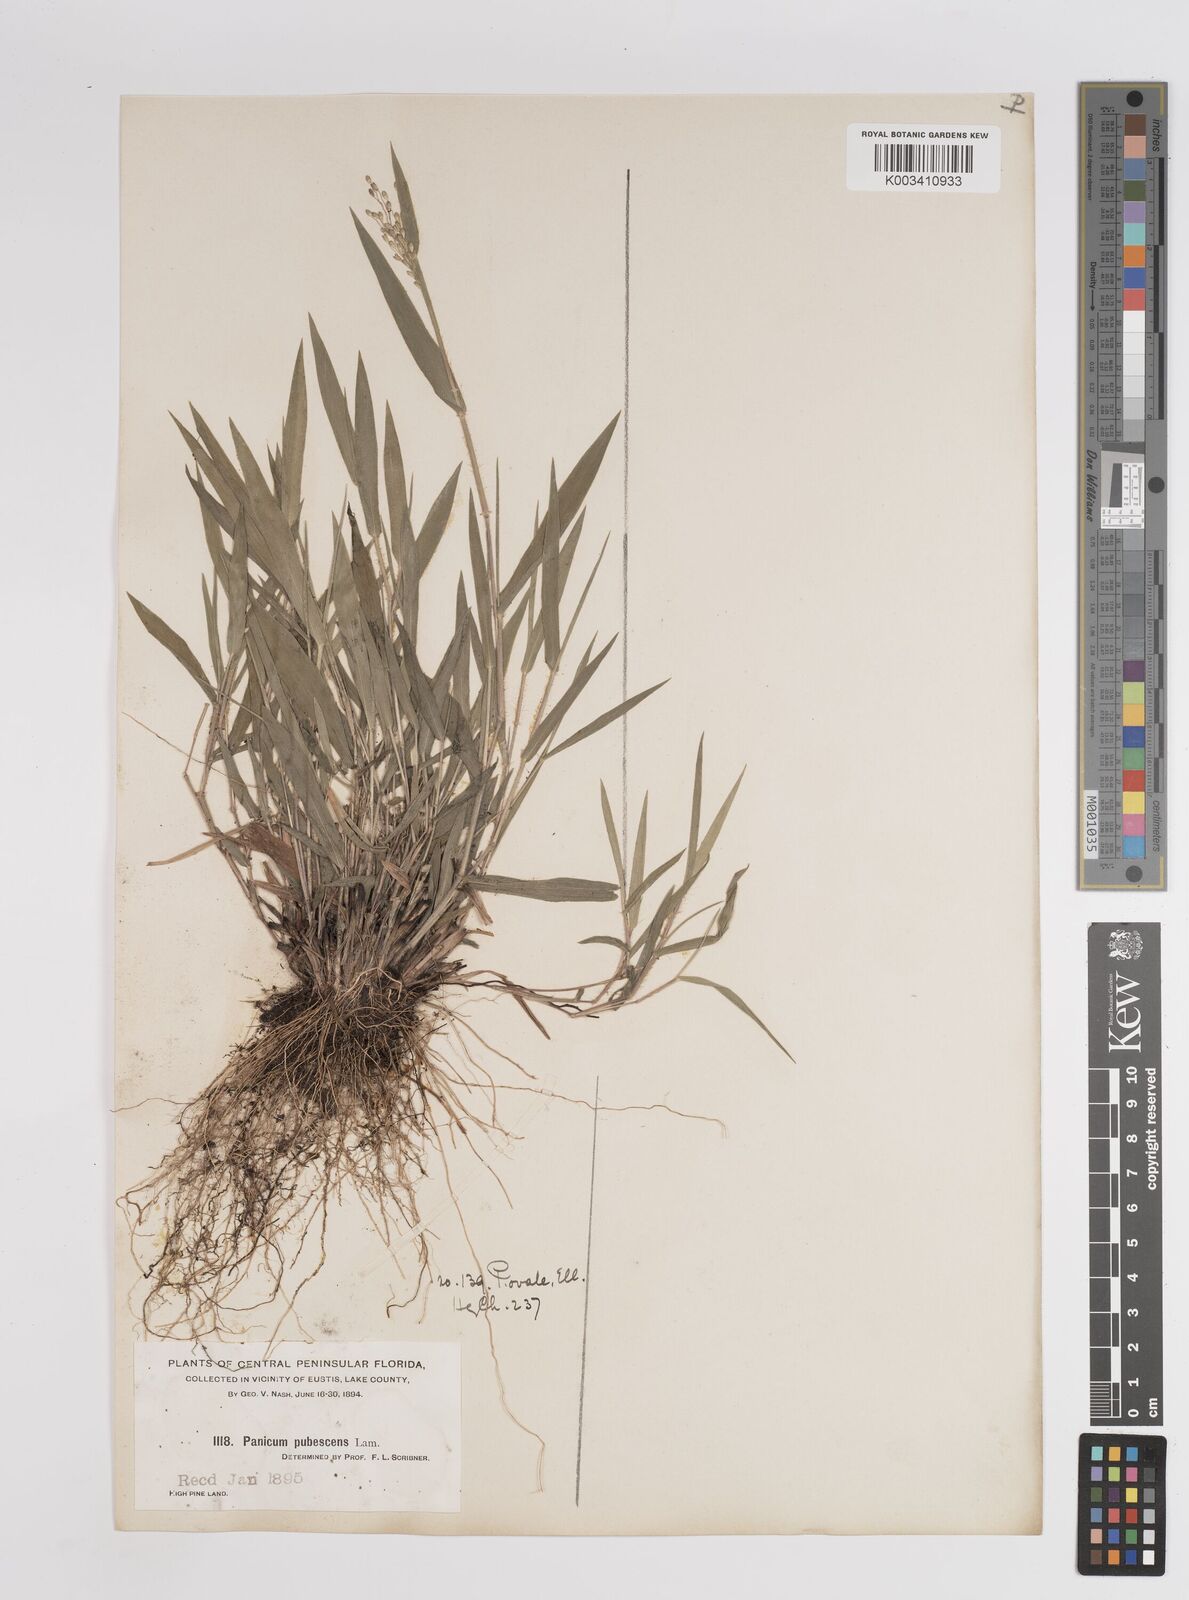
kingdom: Plantae
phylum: Tracheophyta
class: Liliopsida
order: Poales
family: Poaceae
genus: Dichanthelium
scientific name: Dichanthelium ovale
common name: Stiff-leaved panicgrass
